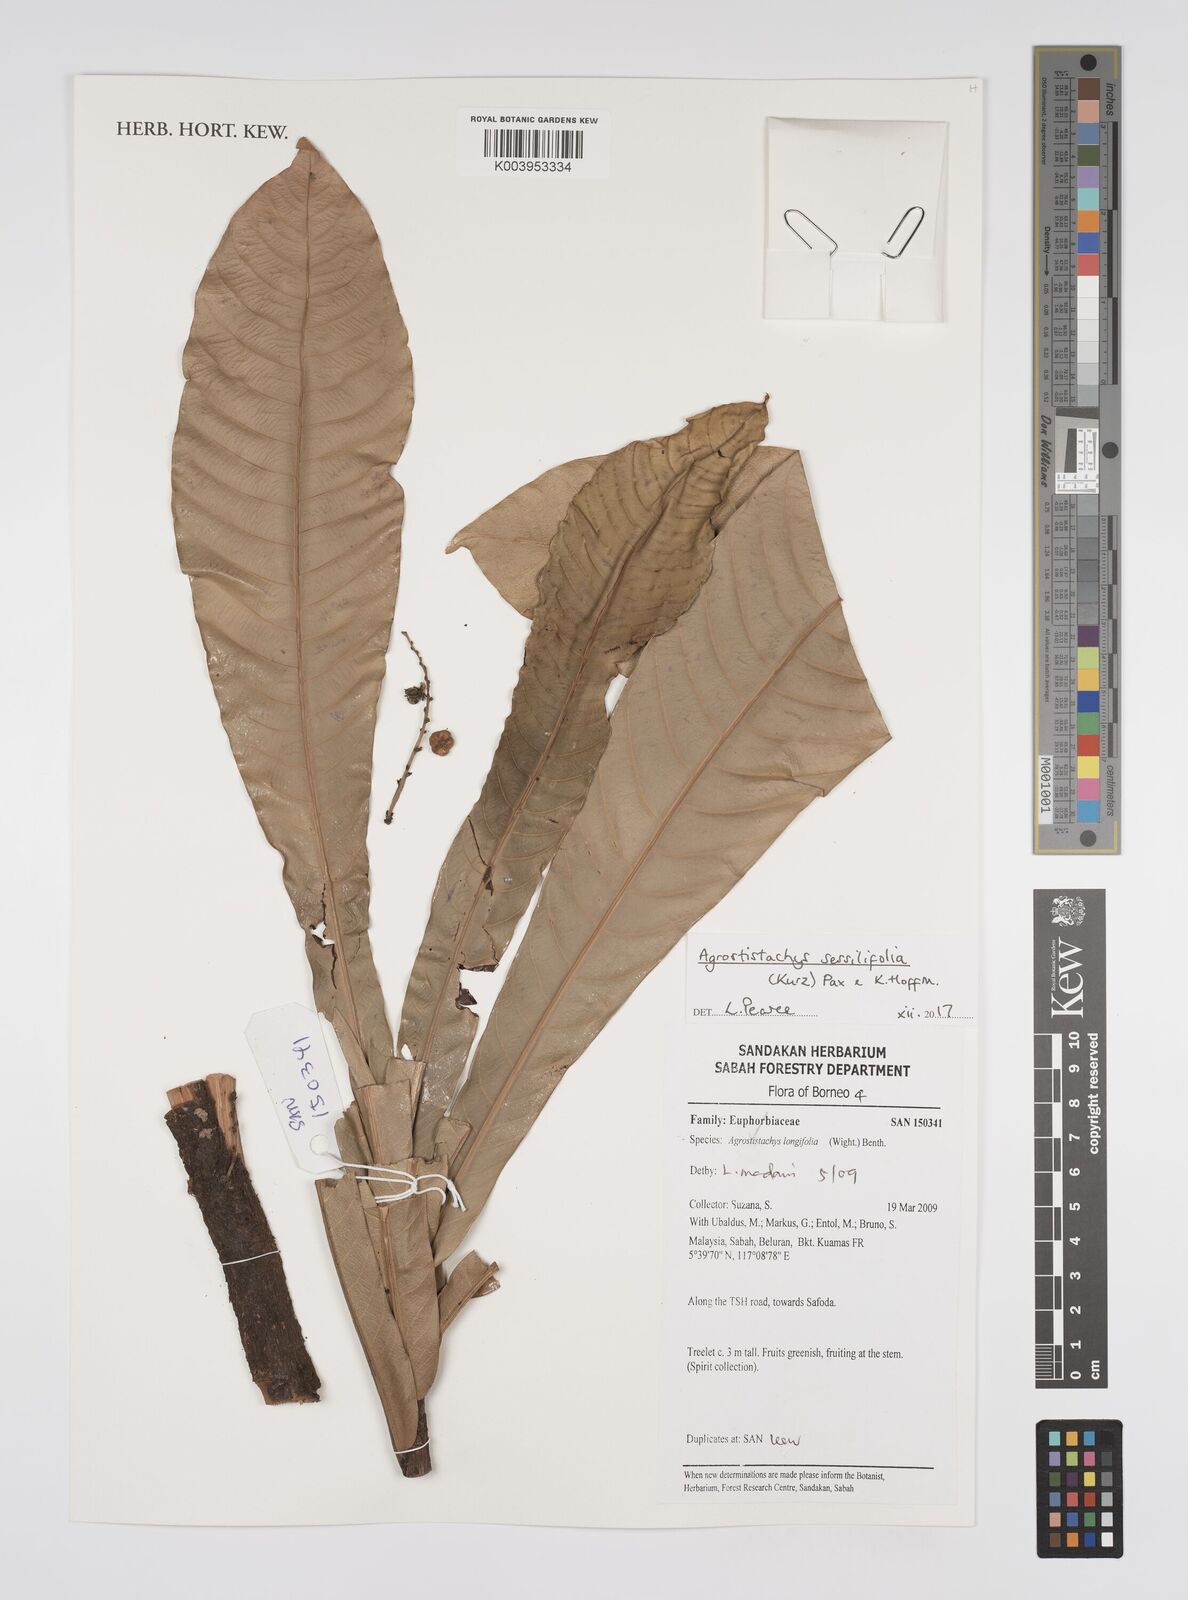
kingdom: Plantae
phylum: Tracheophyta
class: Magnoliopsida
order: Malpighiales
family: Euphorbiaceae
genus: Agrostistachys
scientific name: Agrostistachys sessilifolia
